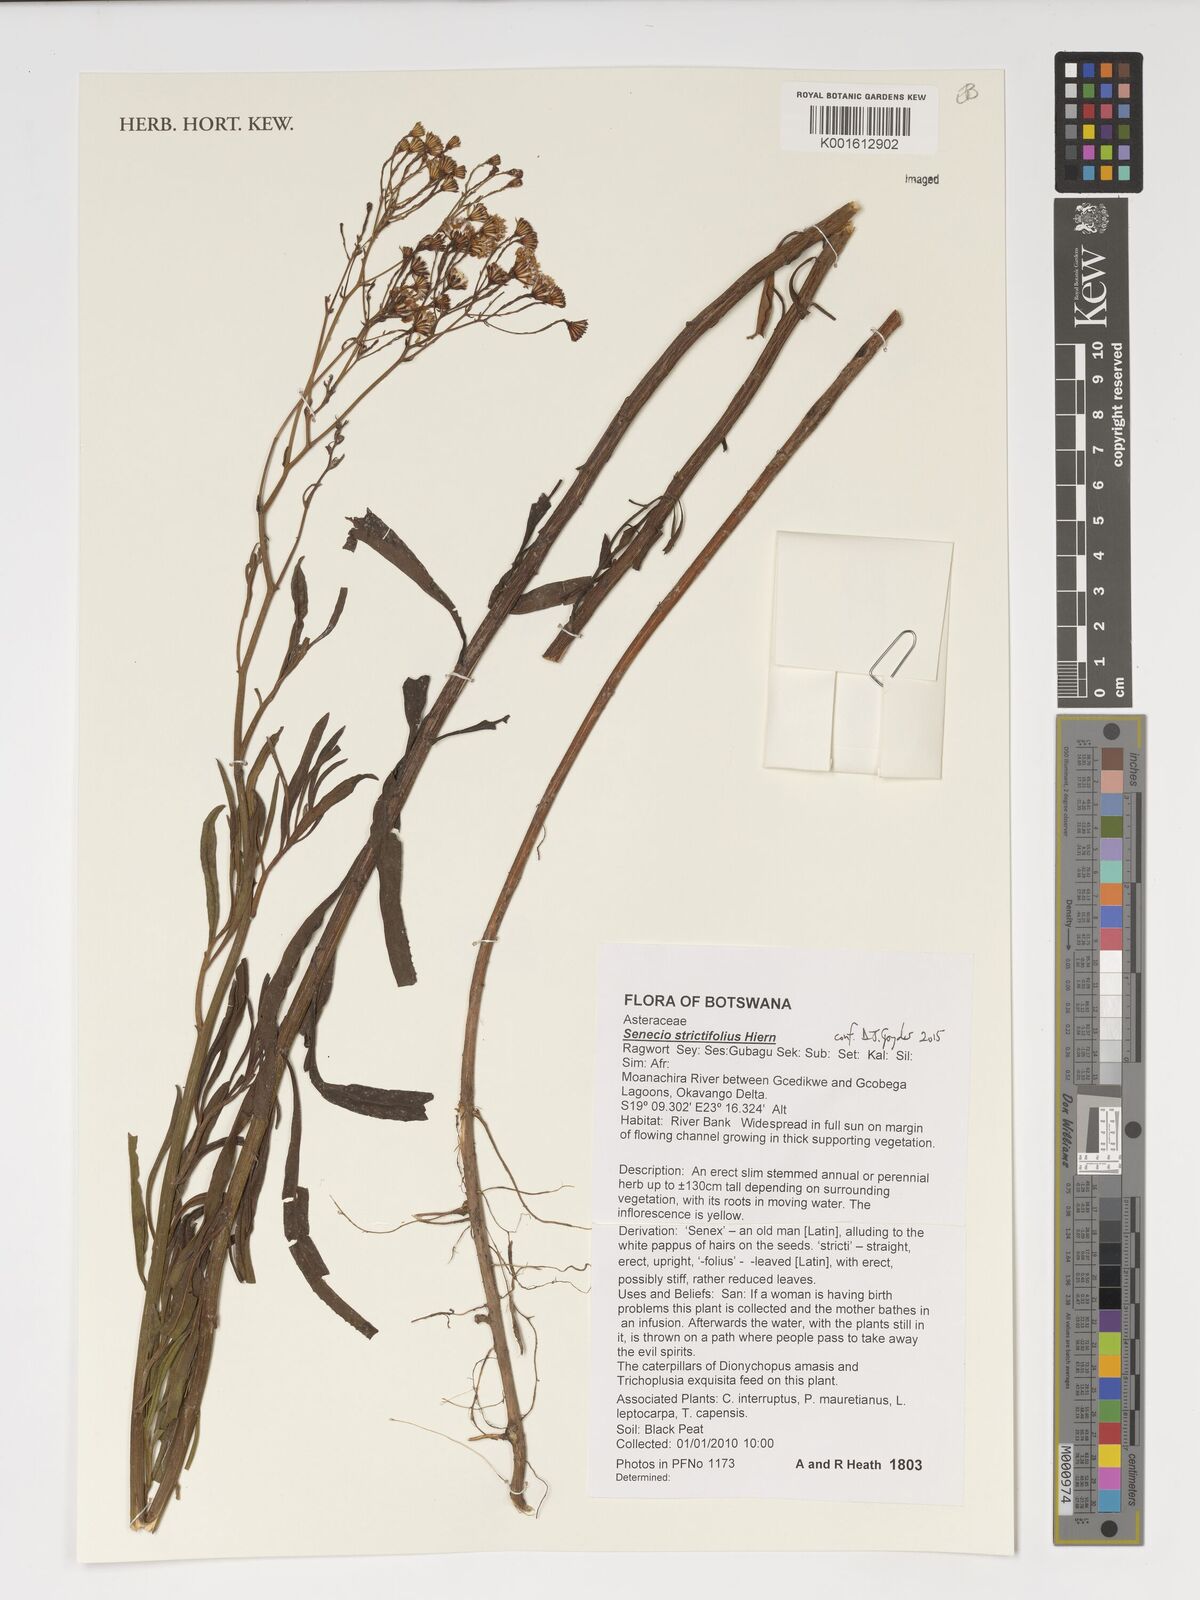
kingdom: Plantae
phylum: Tracheophyta
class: Magnoliopsida
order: Asterales
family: Asteraceae
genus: Senecio
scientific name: Senecio strictifolius
